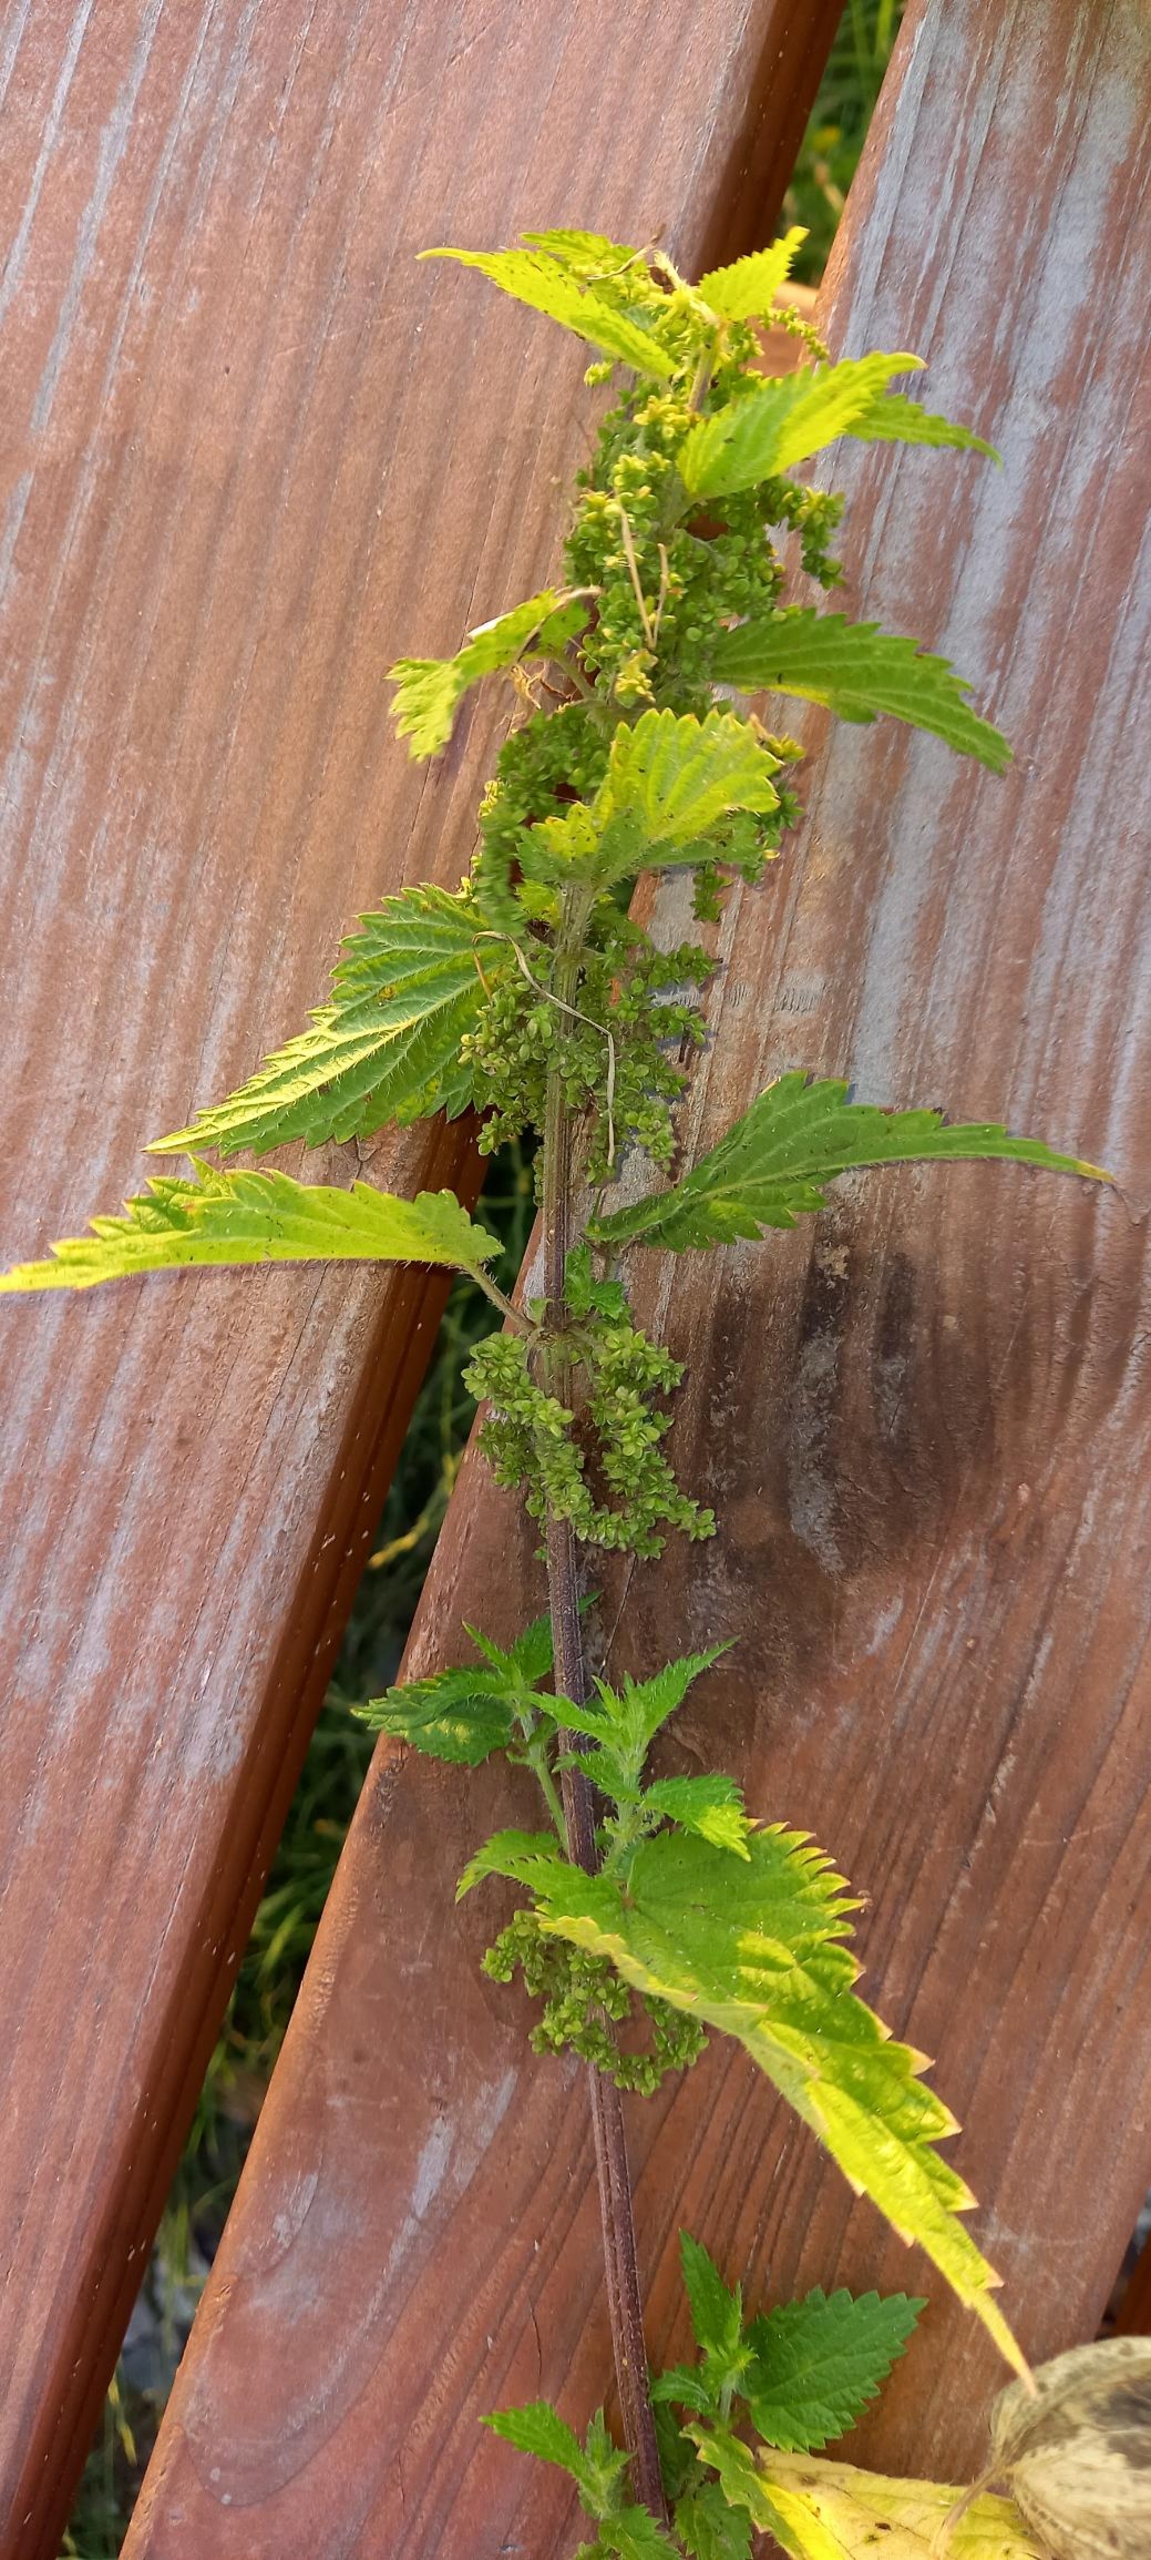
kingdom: Plantae
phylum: Tracheophyta
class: Magnoliopsida
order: Rosales
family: Urticaceae
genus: Urtica
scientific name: Urtica dioica
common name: Stor nælde
